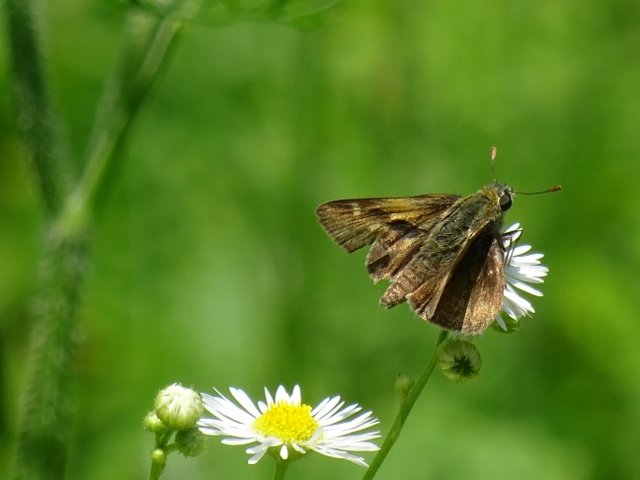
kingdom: Animalia
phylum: Arthropoda
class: Insecta
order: Lepidoptera
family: Hesperiidae
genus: Polites
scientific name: Polites
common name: Long Dash Skipper
